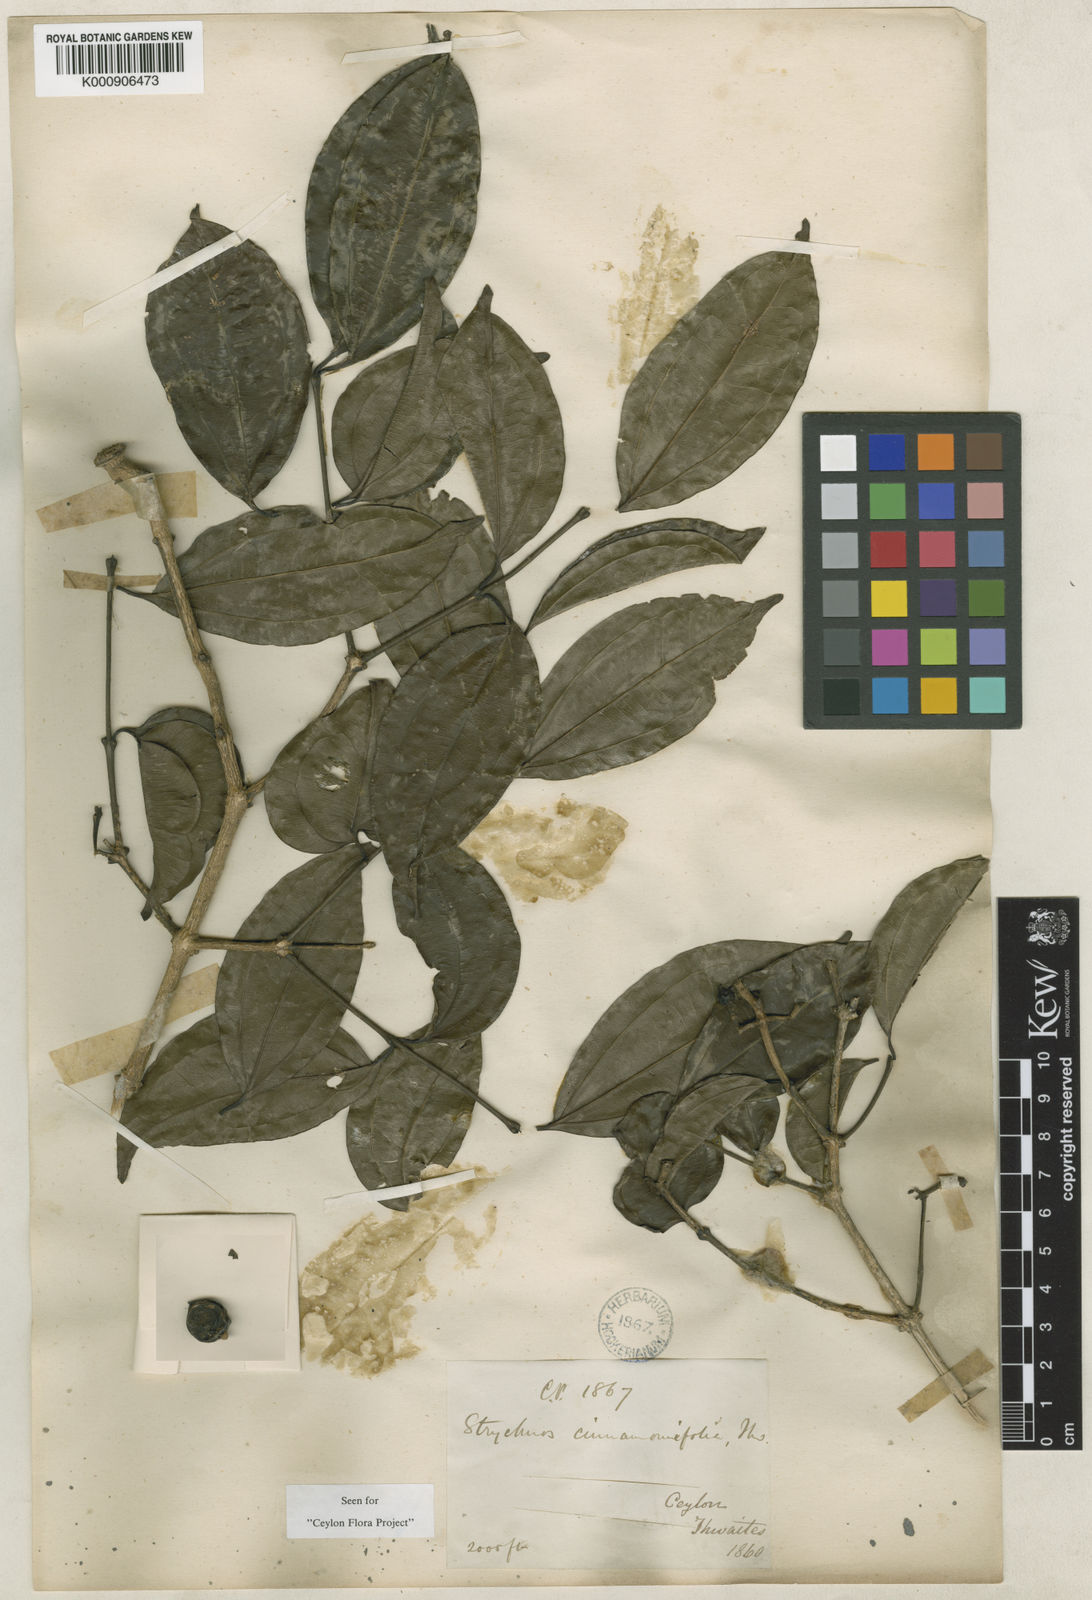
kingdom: Plantae
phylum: Tracheophyta
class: Magnoliopsida
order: Gentianales
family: Loganiaceae
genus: Strychnos
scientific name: Strychnos
